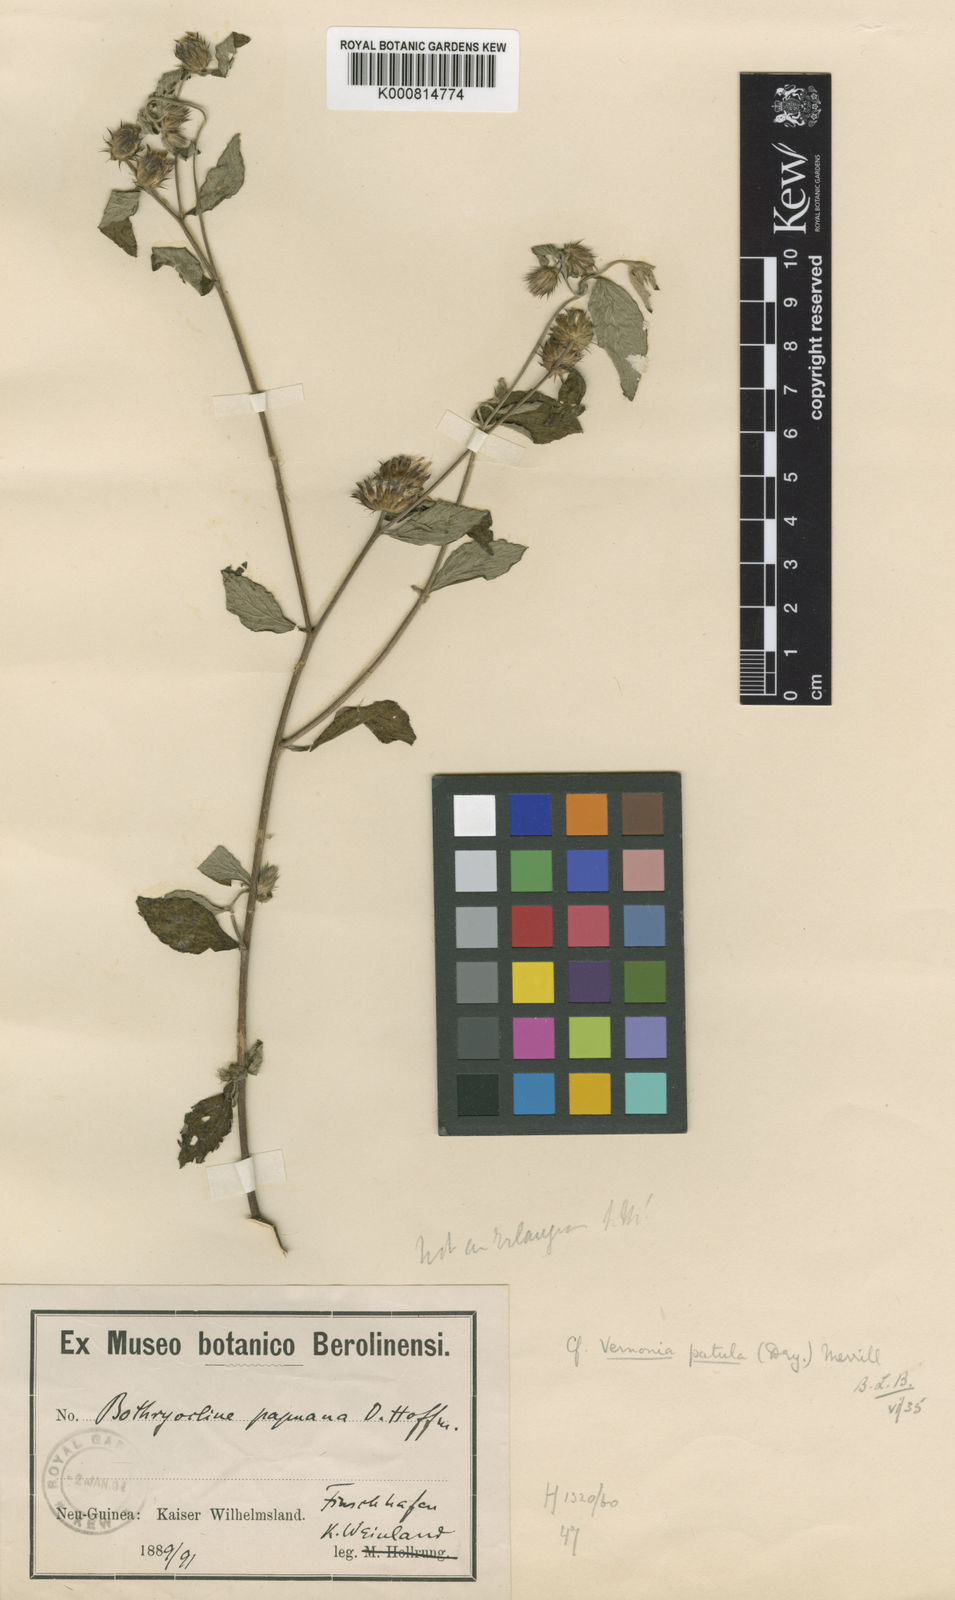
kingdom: Plantae
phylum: Tracheophyta
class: Magnoliopsida
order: Asterales
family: Asteraceae
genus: Cyanthillium
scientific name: Cyanthillium patulum
